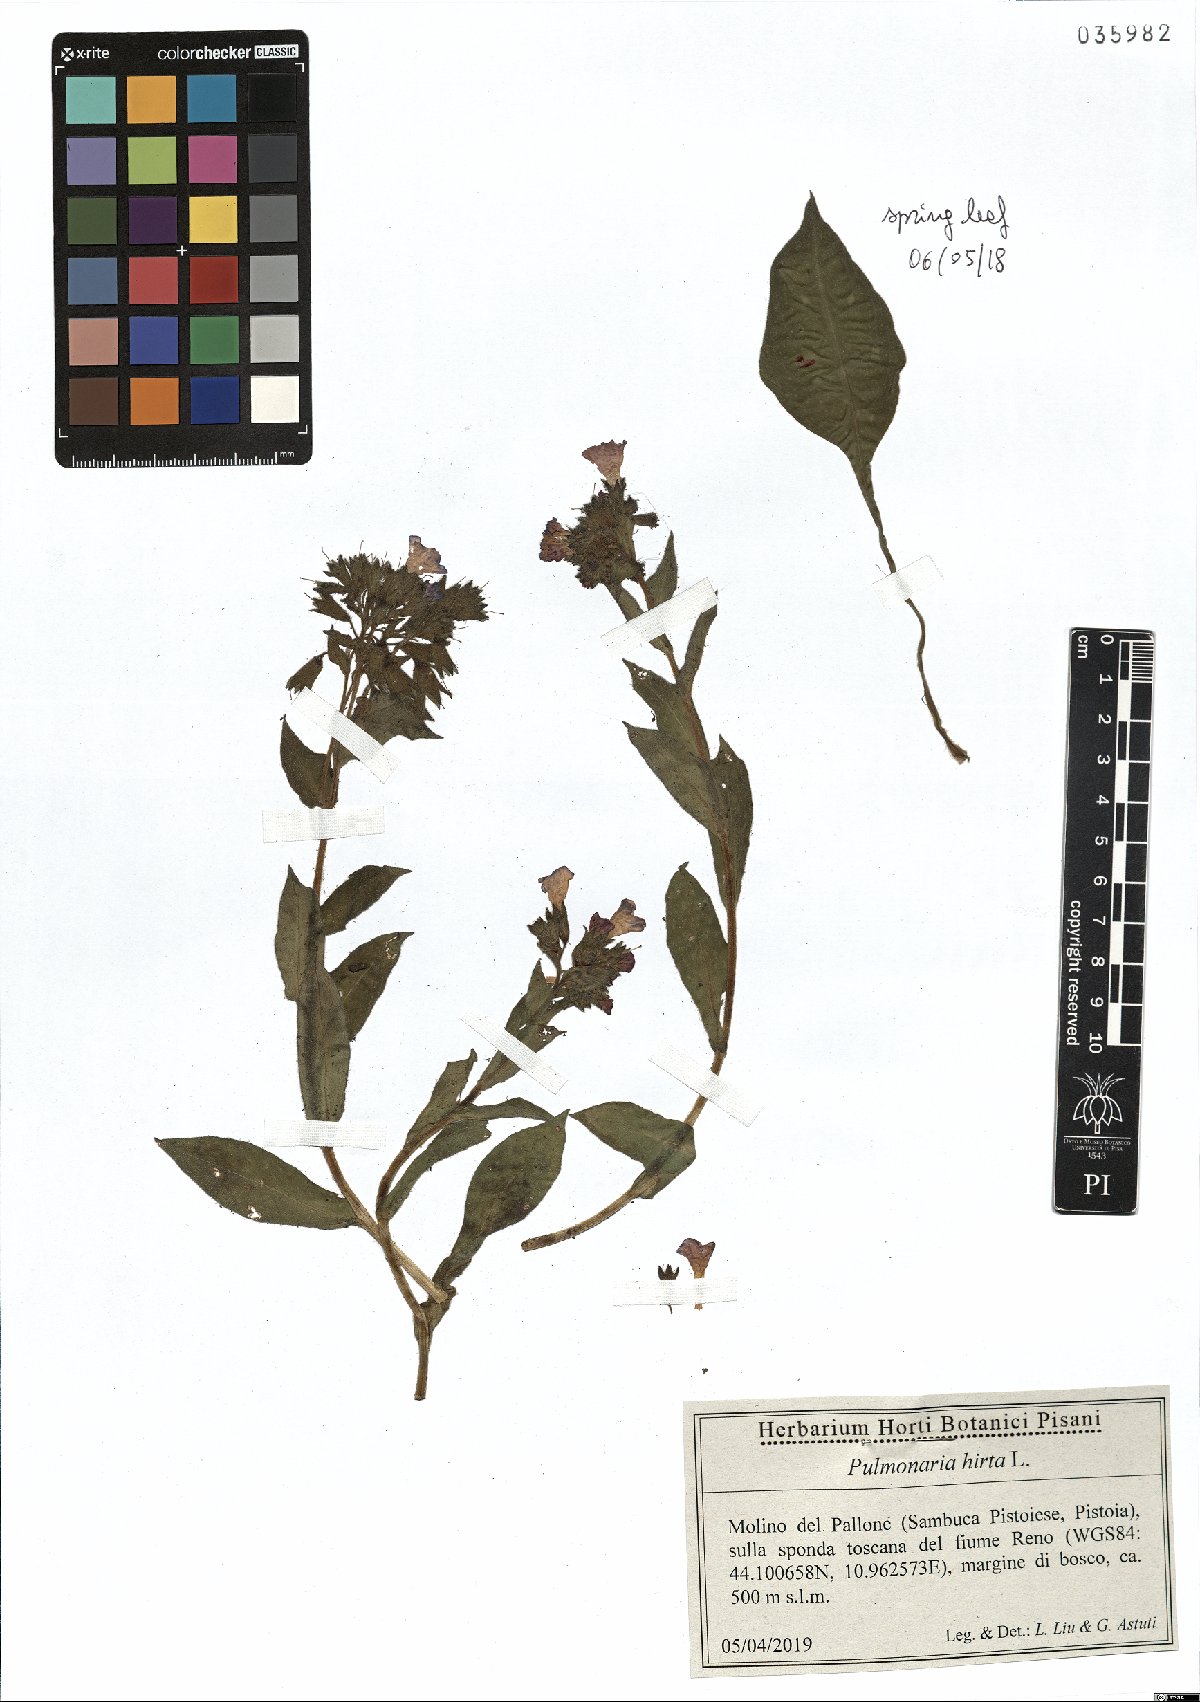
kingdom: Plantae
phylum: Tracheophyta
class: Magnoliopsida
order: Boraginales
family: Boraginaceae
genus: Pulmonaria
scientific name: Pulmonaria hirta
